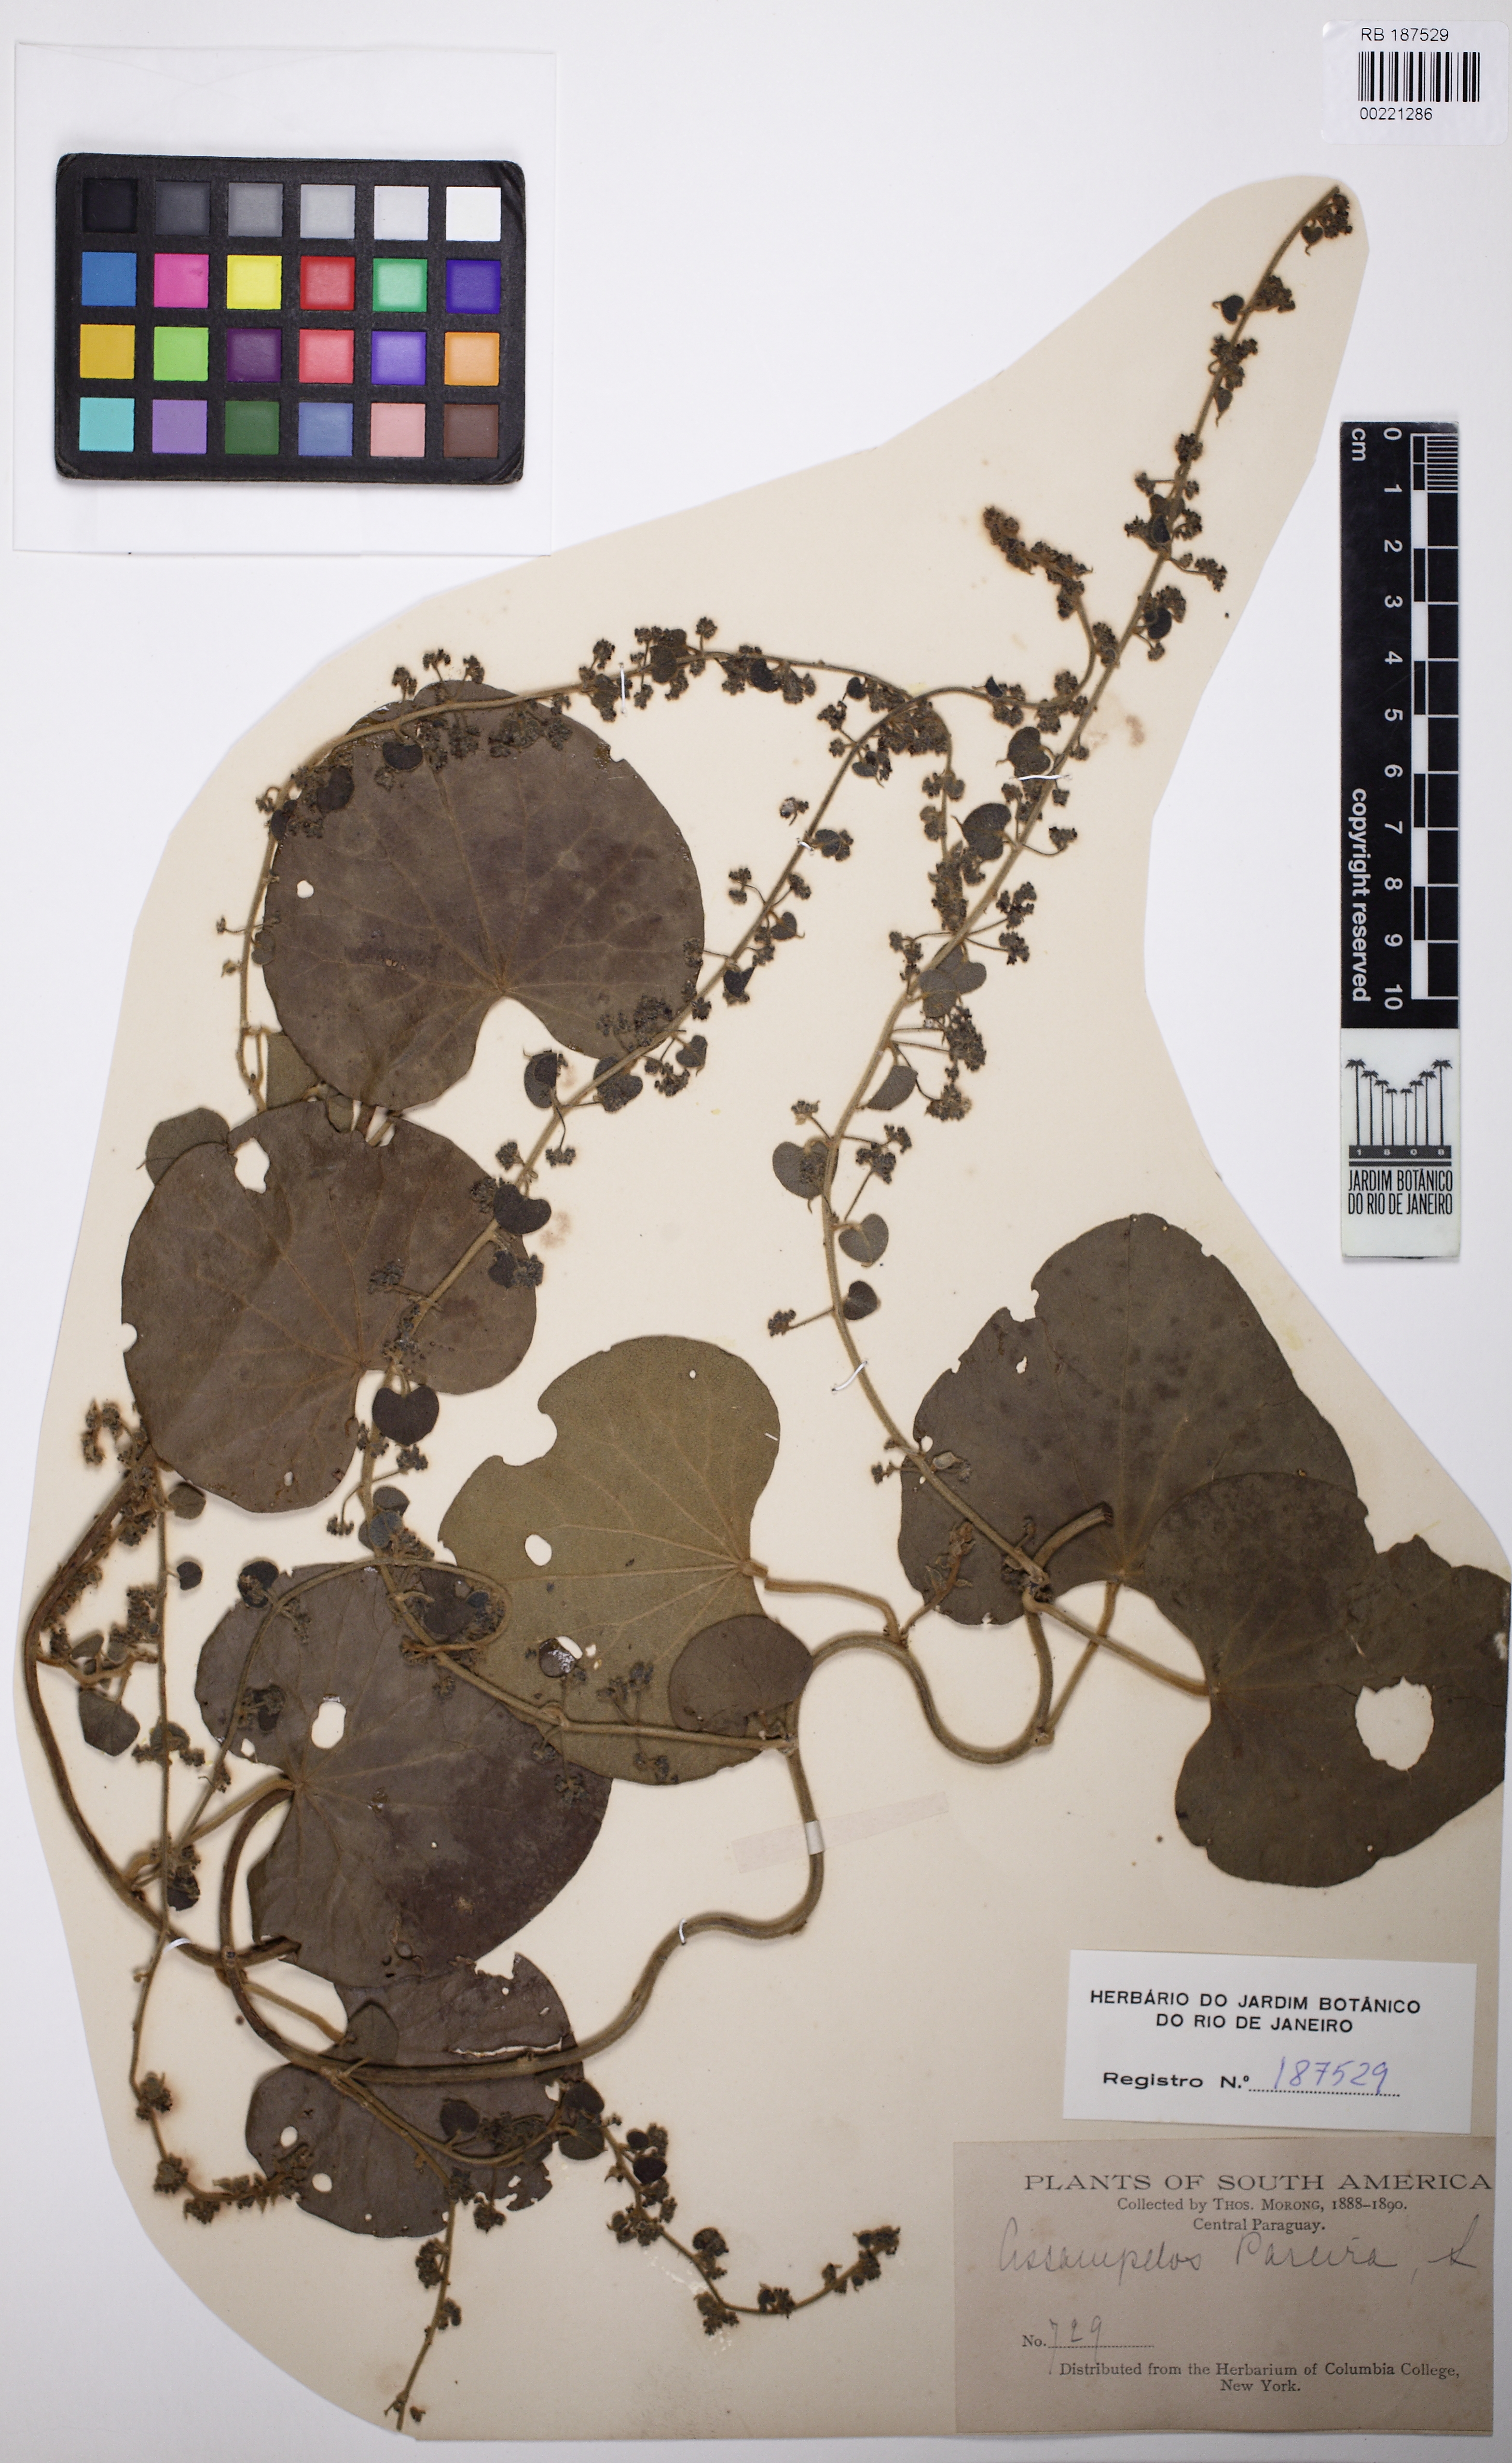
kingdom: Plantae
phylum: Tracheophyta
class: Magnoliopsida
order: Ranunculales
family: Menispermaceae
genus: Cissampelos
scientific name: Cissampelos pareira
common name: Velvetleaf
